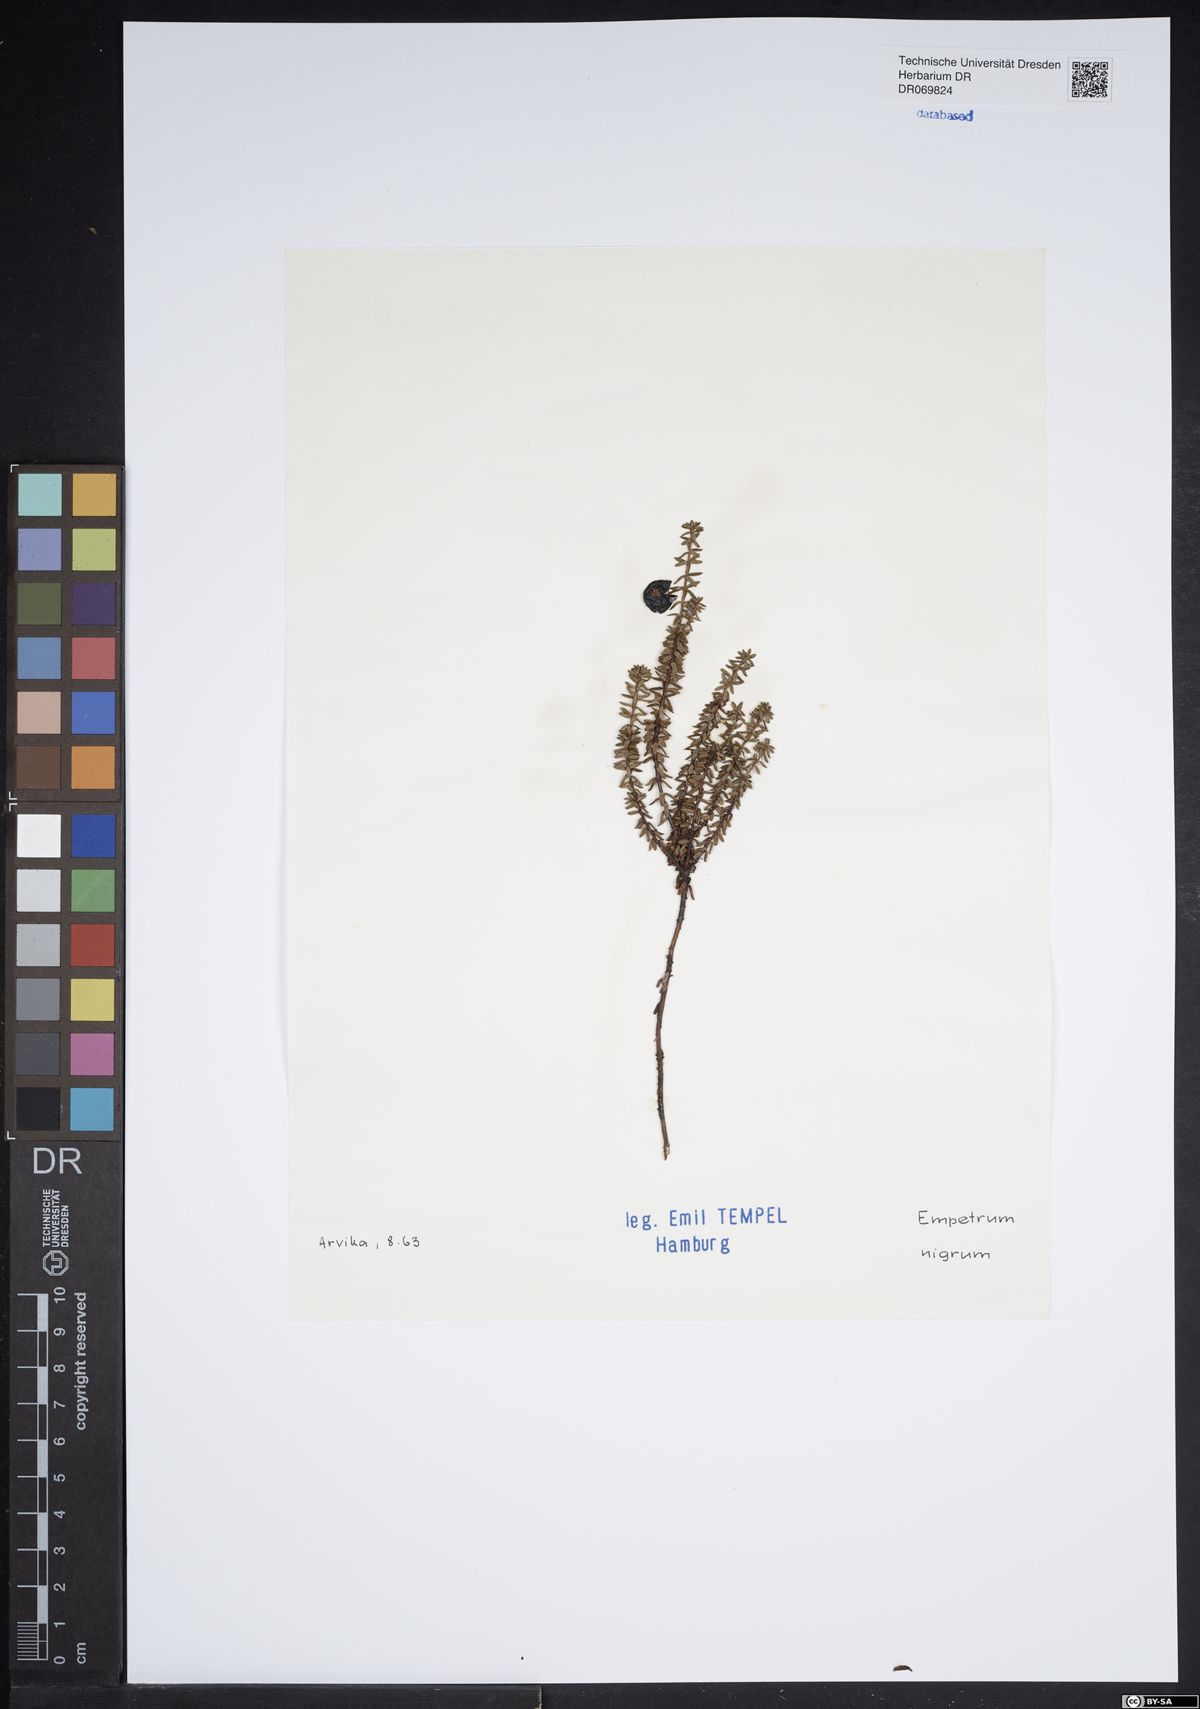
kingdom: Plantae
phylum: Tracheophyta
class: Magnoliopsida
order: Ericales
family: Ericaceae
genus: Empetrum
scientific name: Empetrum nigrum
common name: Black crowberry
